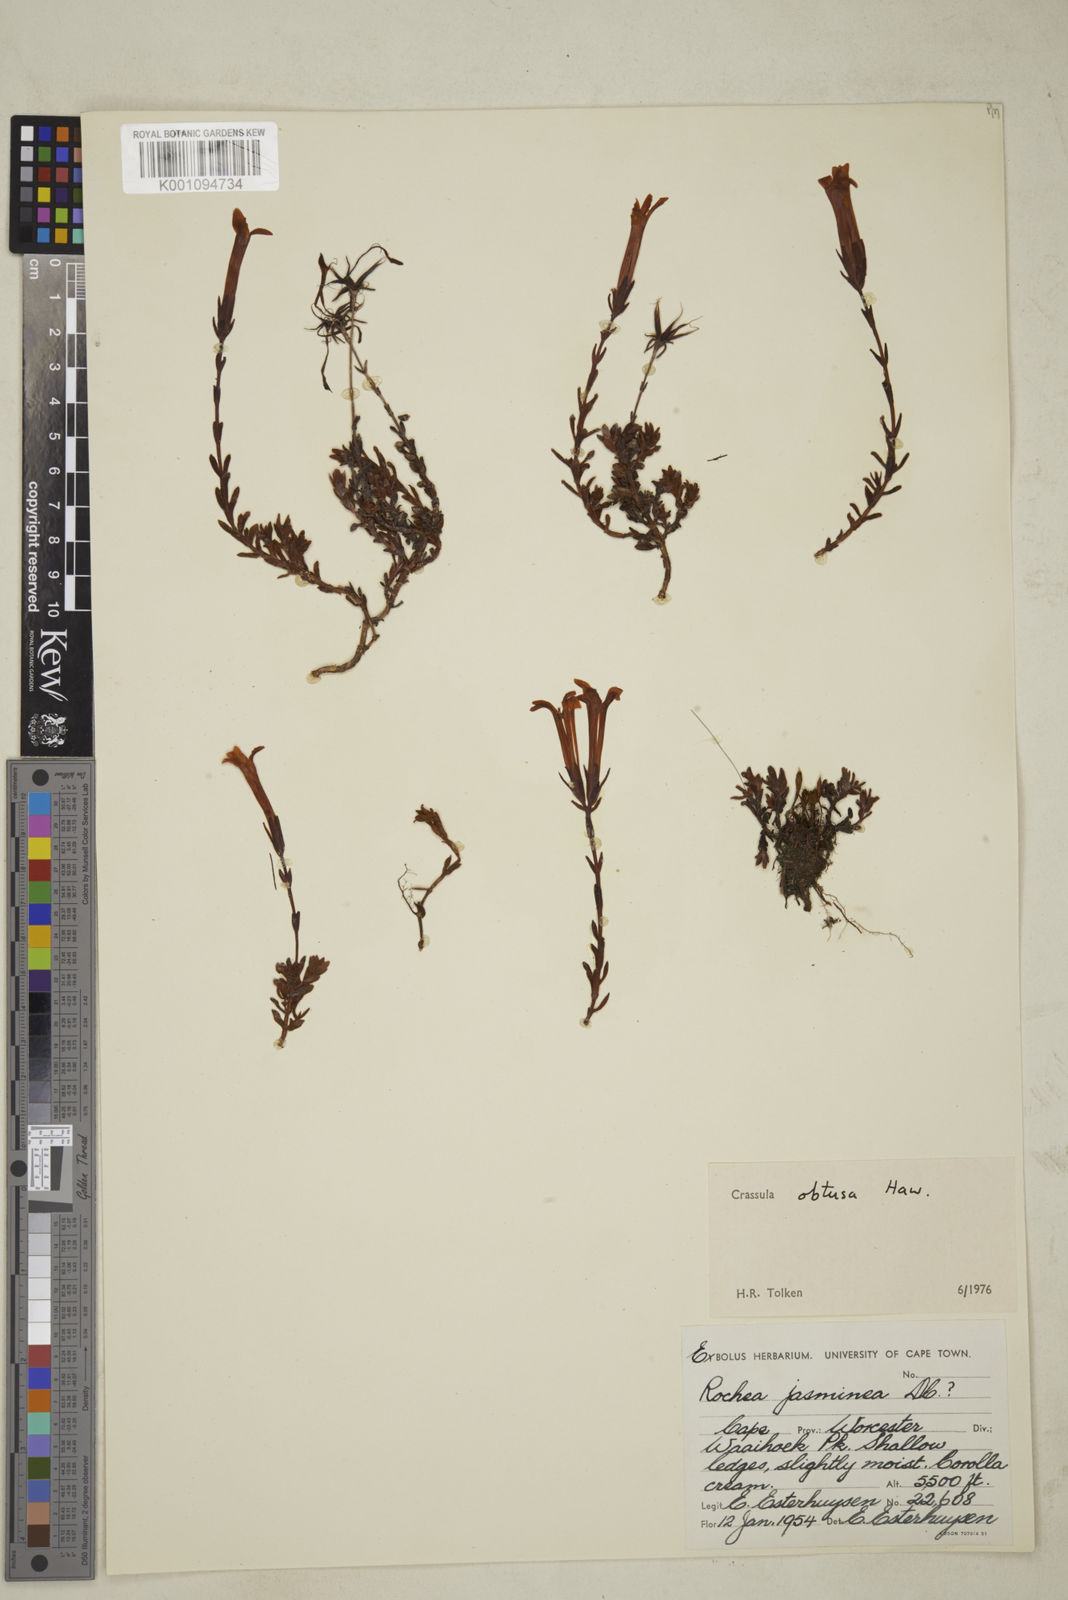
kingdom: Plantae
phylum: Tracheophyta
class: Magnoliopsida
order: Saxifragales
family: Crassulaceae
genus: Crassula
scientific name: Crassula obtusa
